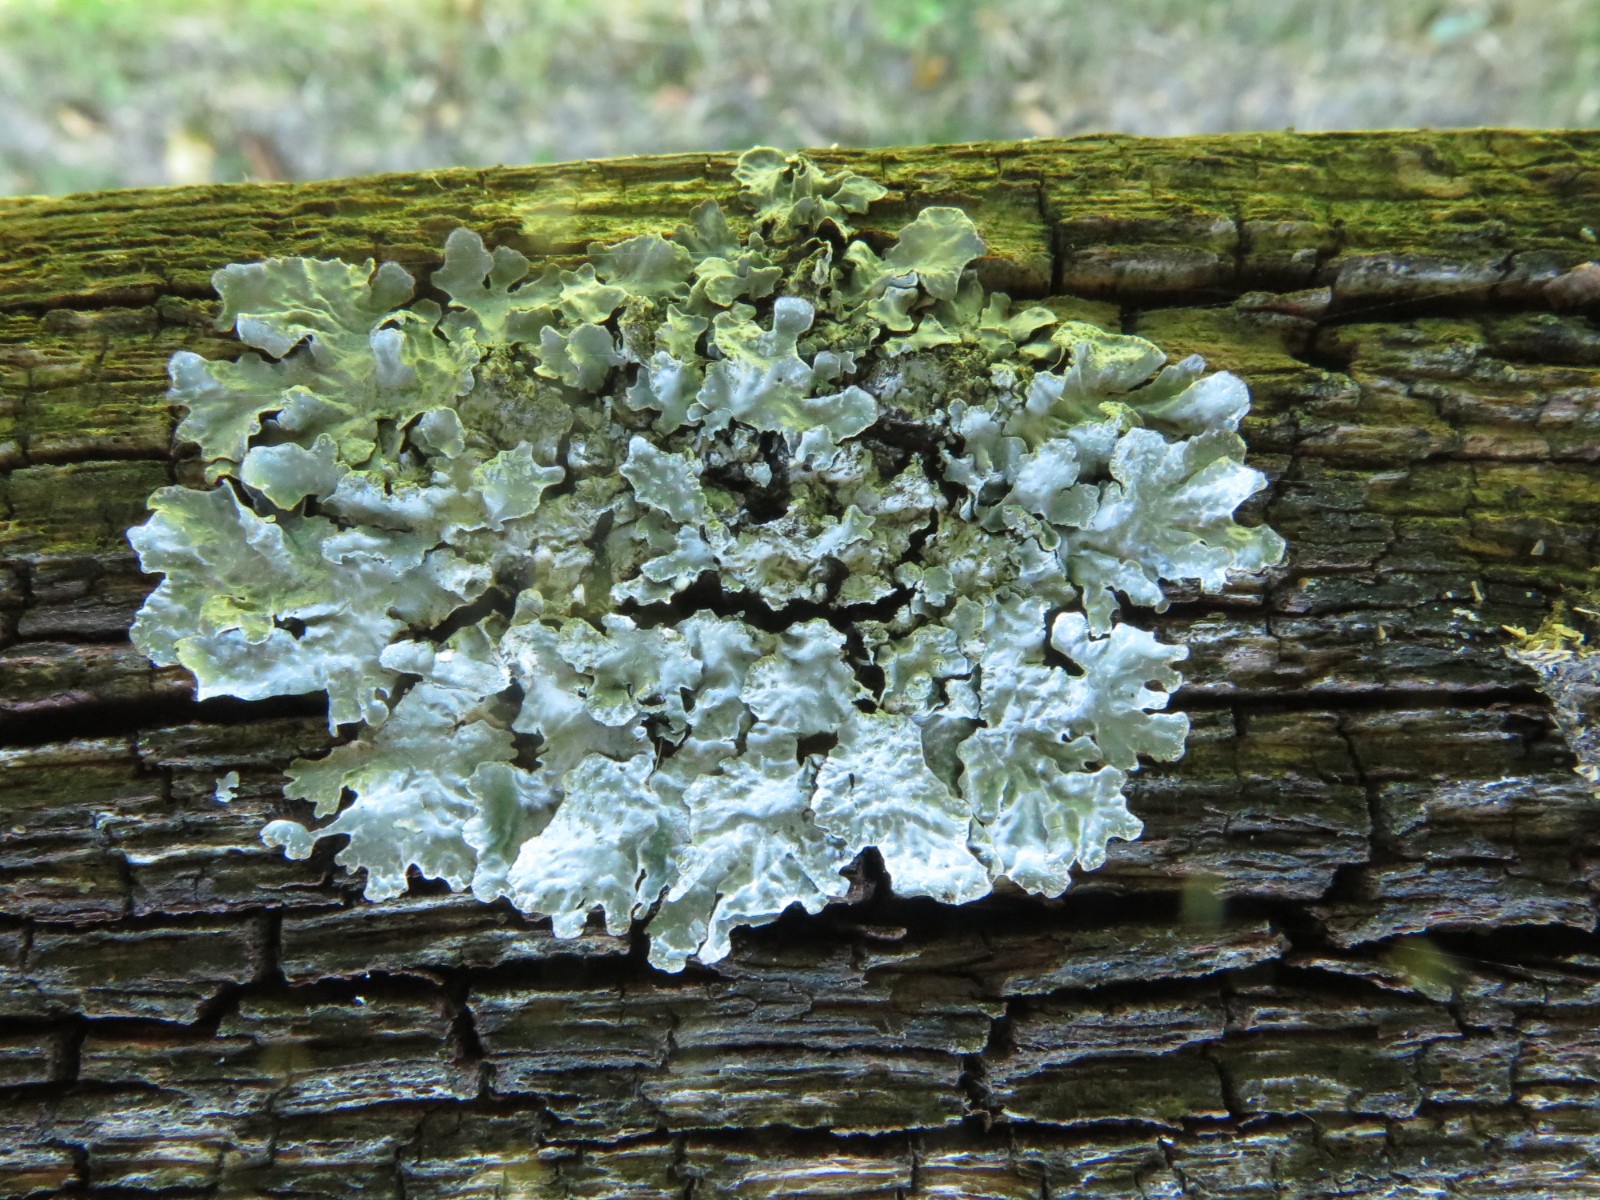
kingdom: Fungi
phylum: Ascomycota
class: Lecanoromycetes
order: Lecanorales
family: Parmeliaceae
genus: Parmelia
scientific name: Parmelia sulcata
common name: rynket skållav
